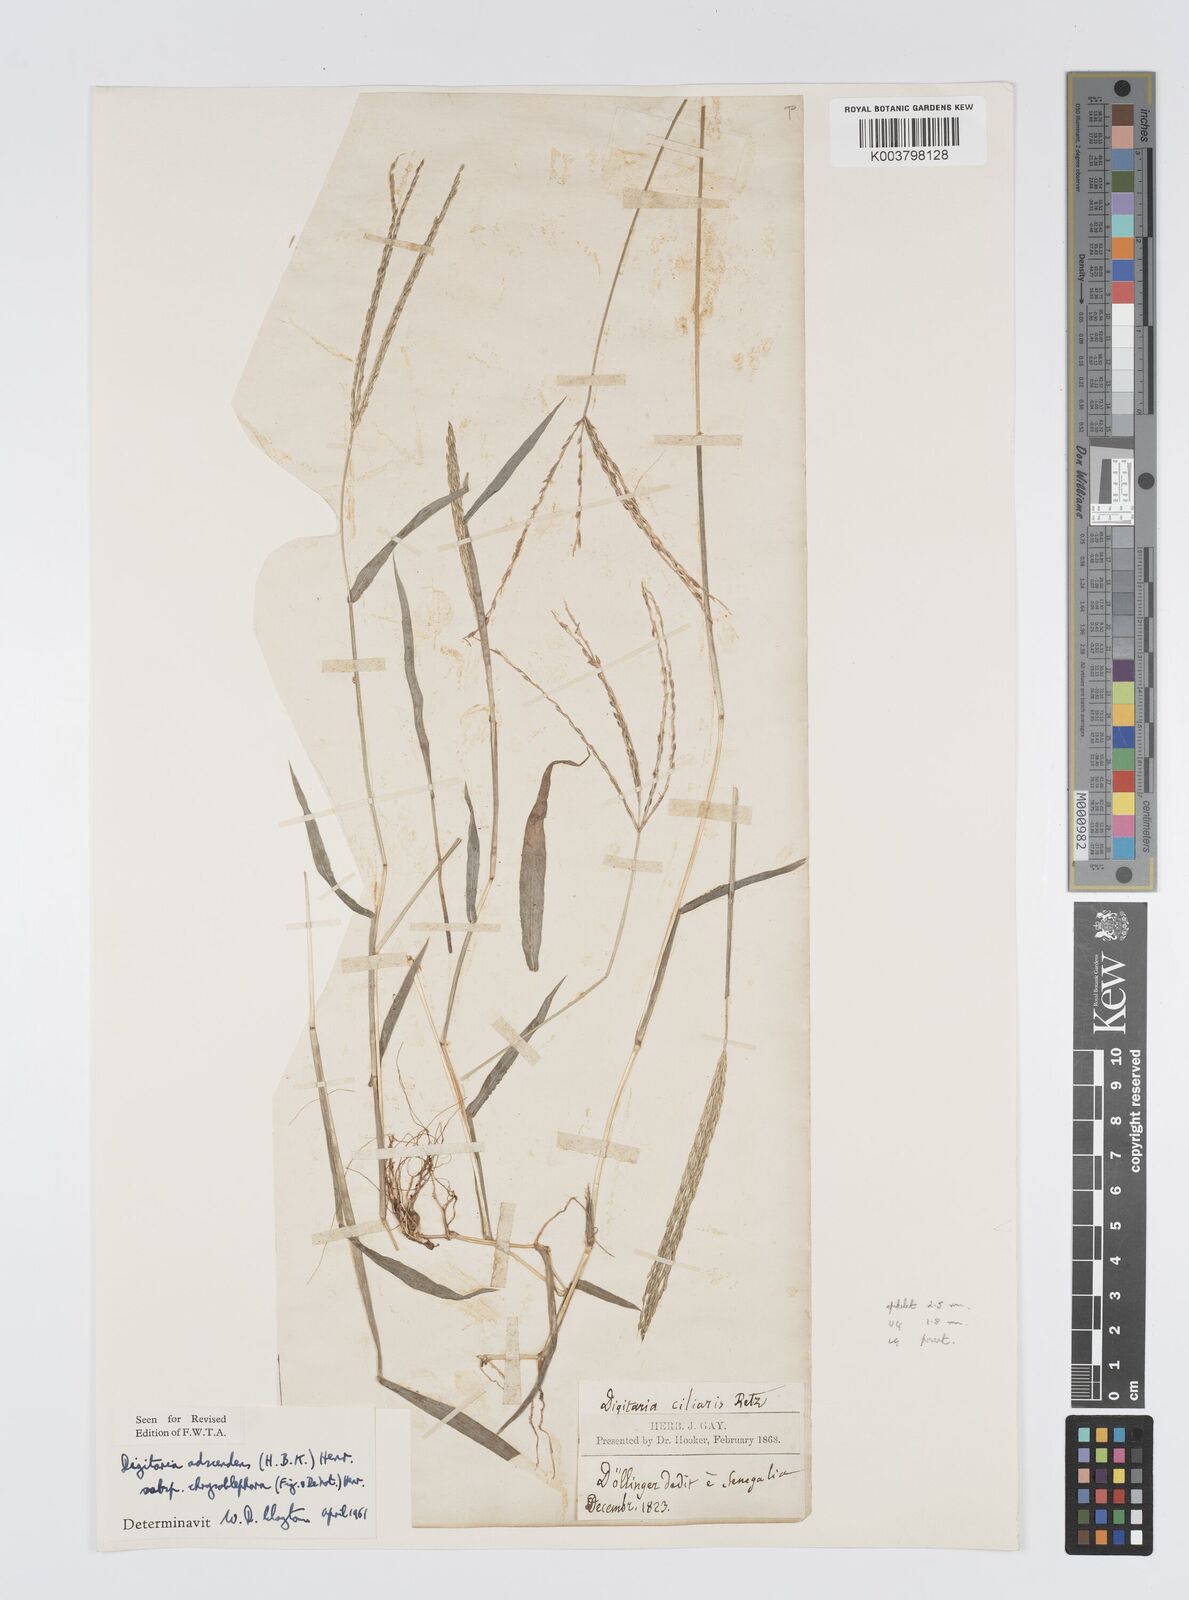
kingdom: Plantae
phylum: Tracheophyta
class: Liliopsida
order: Poales
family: Poaceae
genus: Digitaria
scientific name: Digitaria ciliaris
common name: Tropical finger-grass
